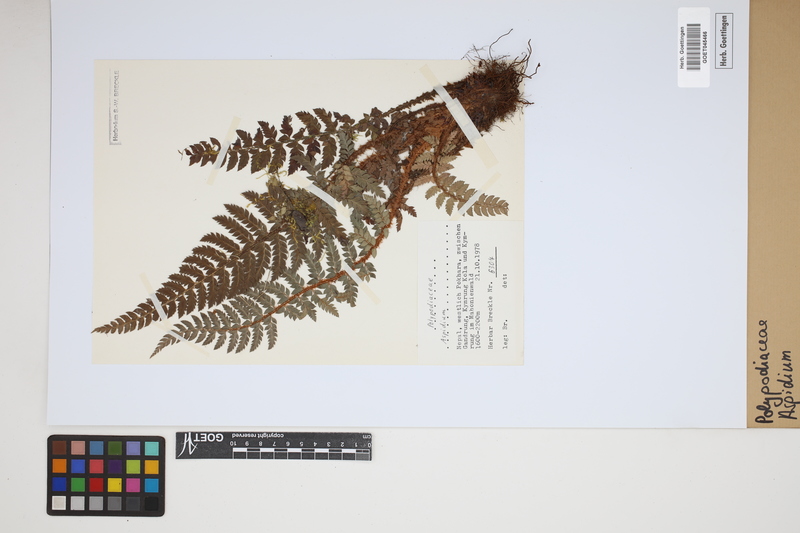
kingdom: Plantae
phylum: Tracheophyta
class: Polypodiopsida
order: Polypodiales
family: Tectariaceae
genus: Tectaria
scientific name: Tectaria Aspidium spec
